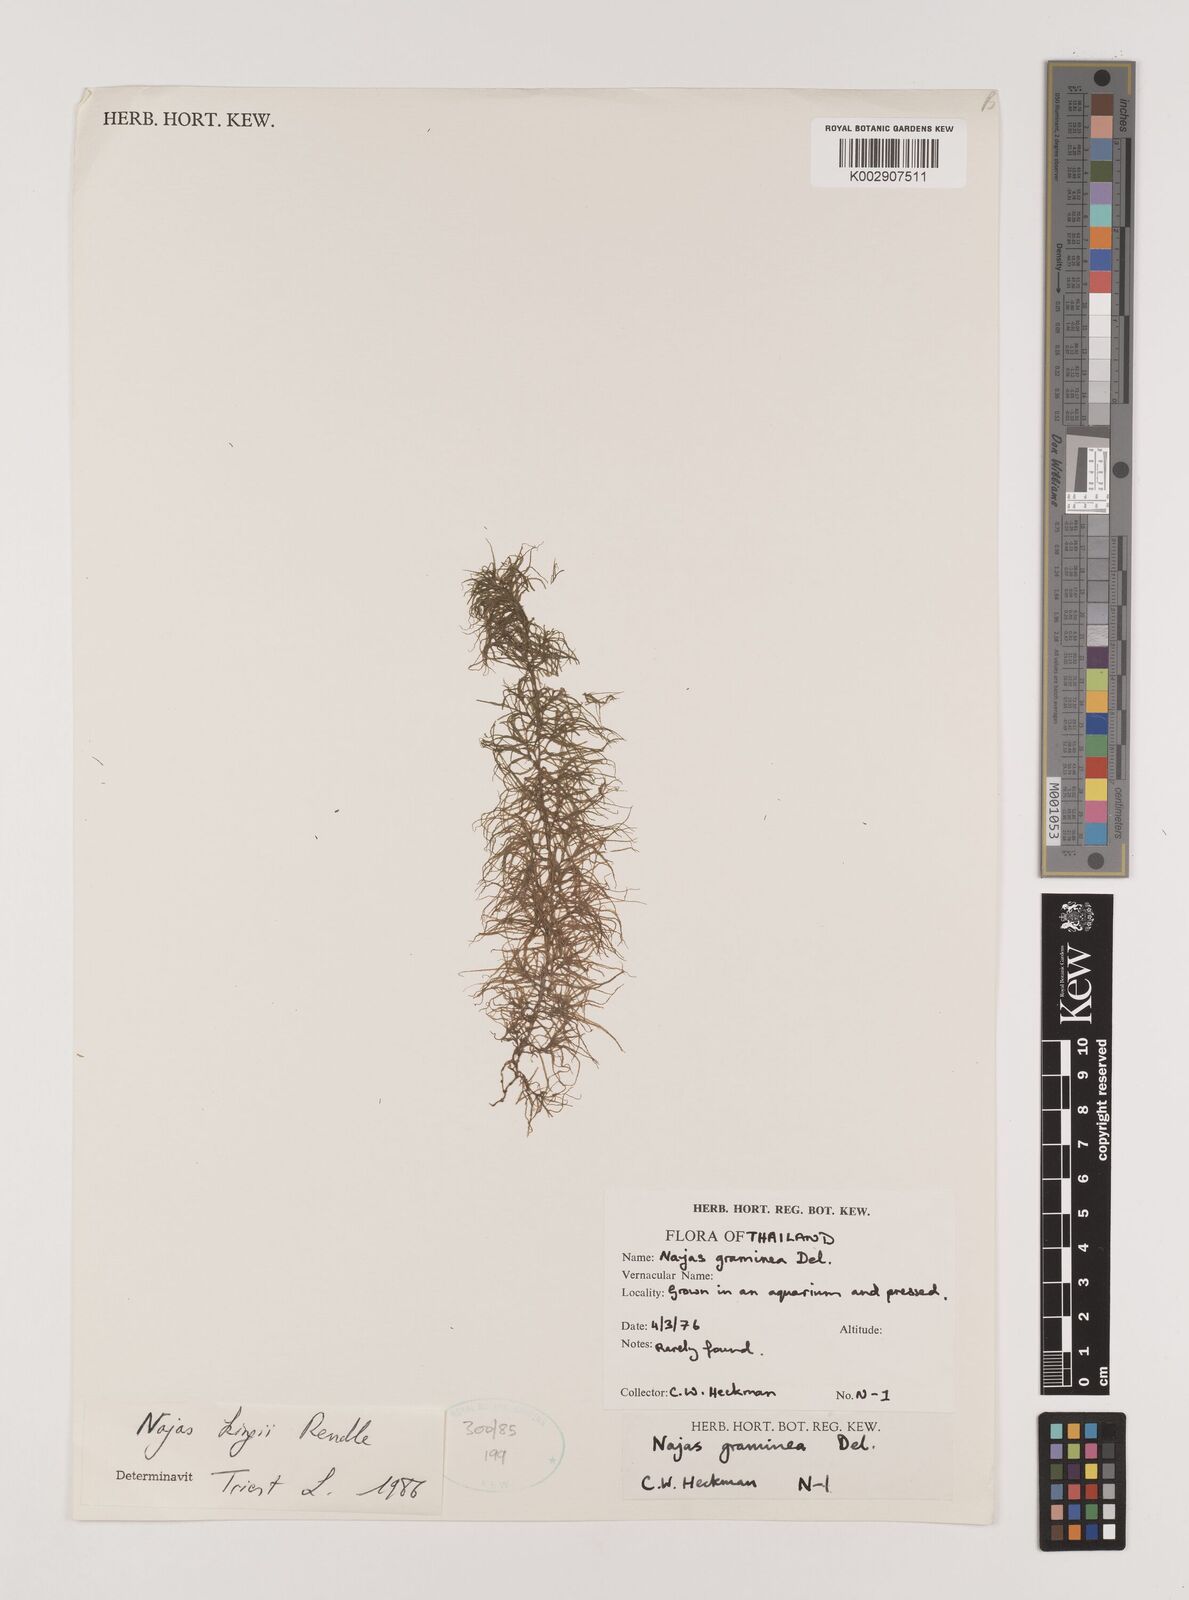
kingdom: Plantae
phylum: Tracheophyta
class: Liliopsida
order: Alismatales
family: Hydrocharitaceae
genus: Najas
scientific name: Najas indica
